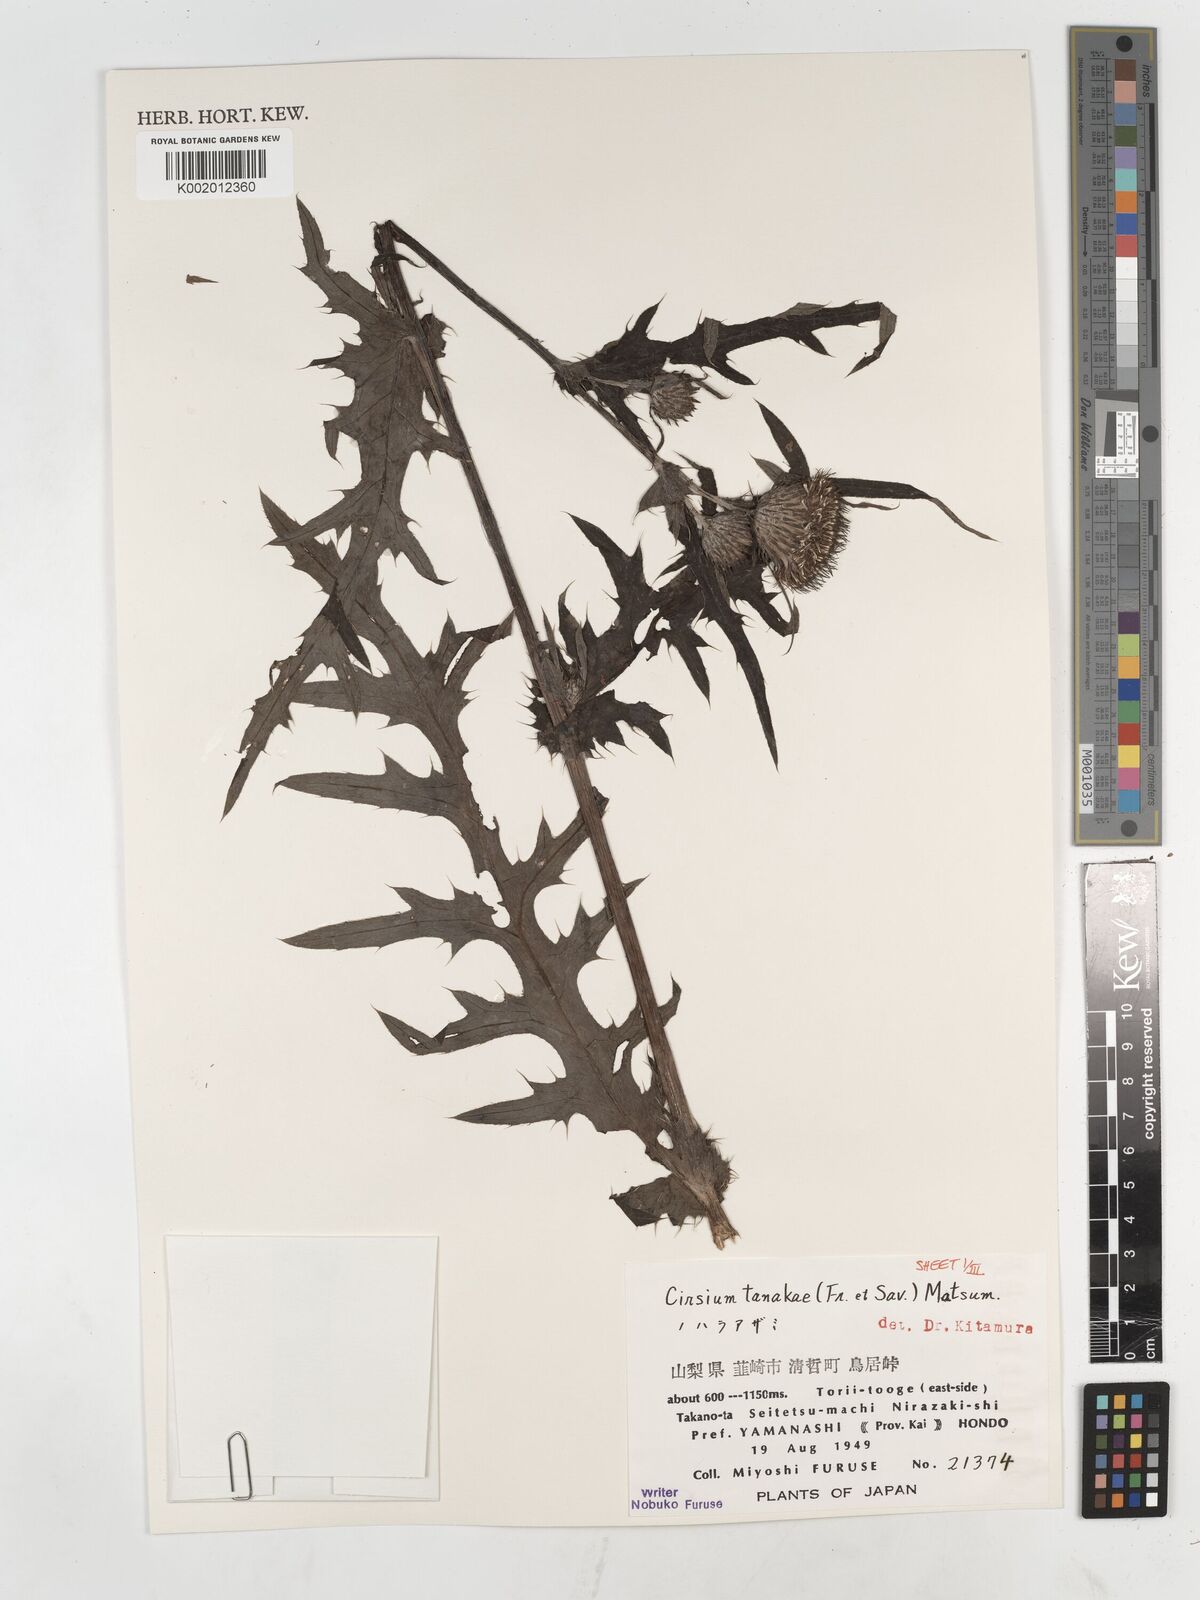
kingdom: Plantae
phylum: Tracheophyta
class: Magnoliopsida
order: Asterales
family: Asteraceae
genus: Cirsium
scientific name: Cirsium nipponicum
